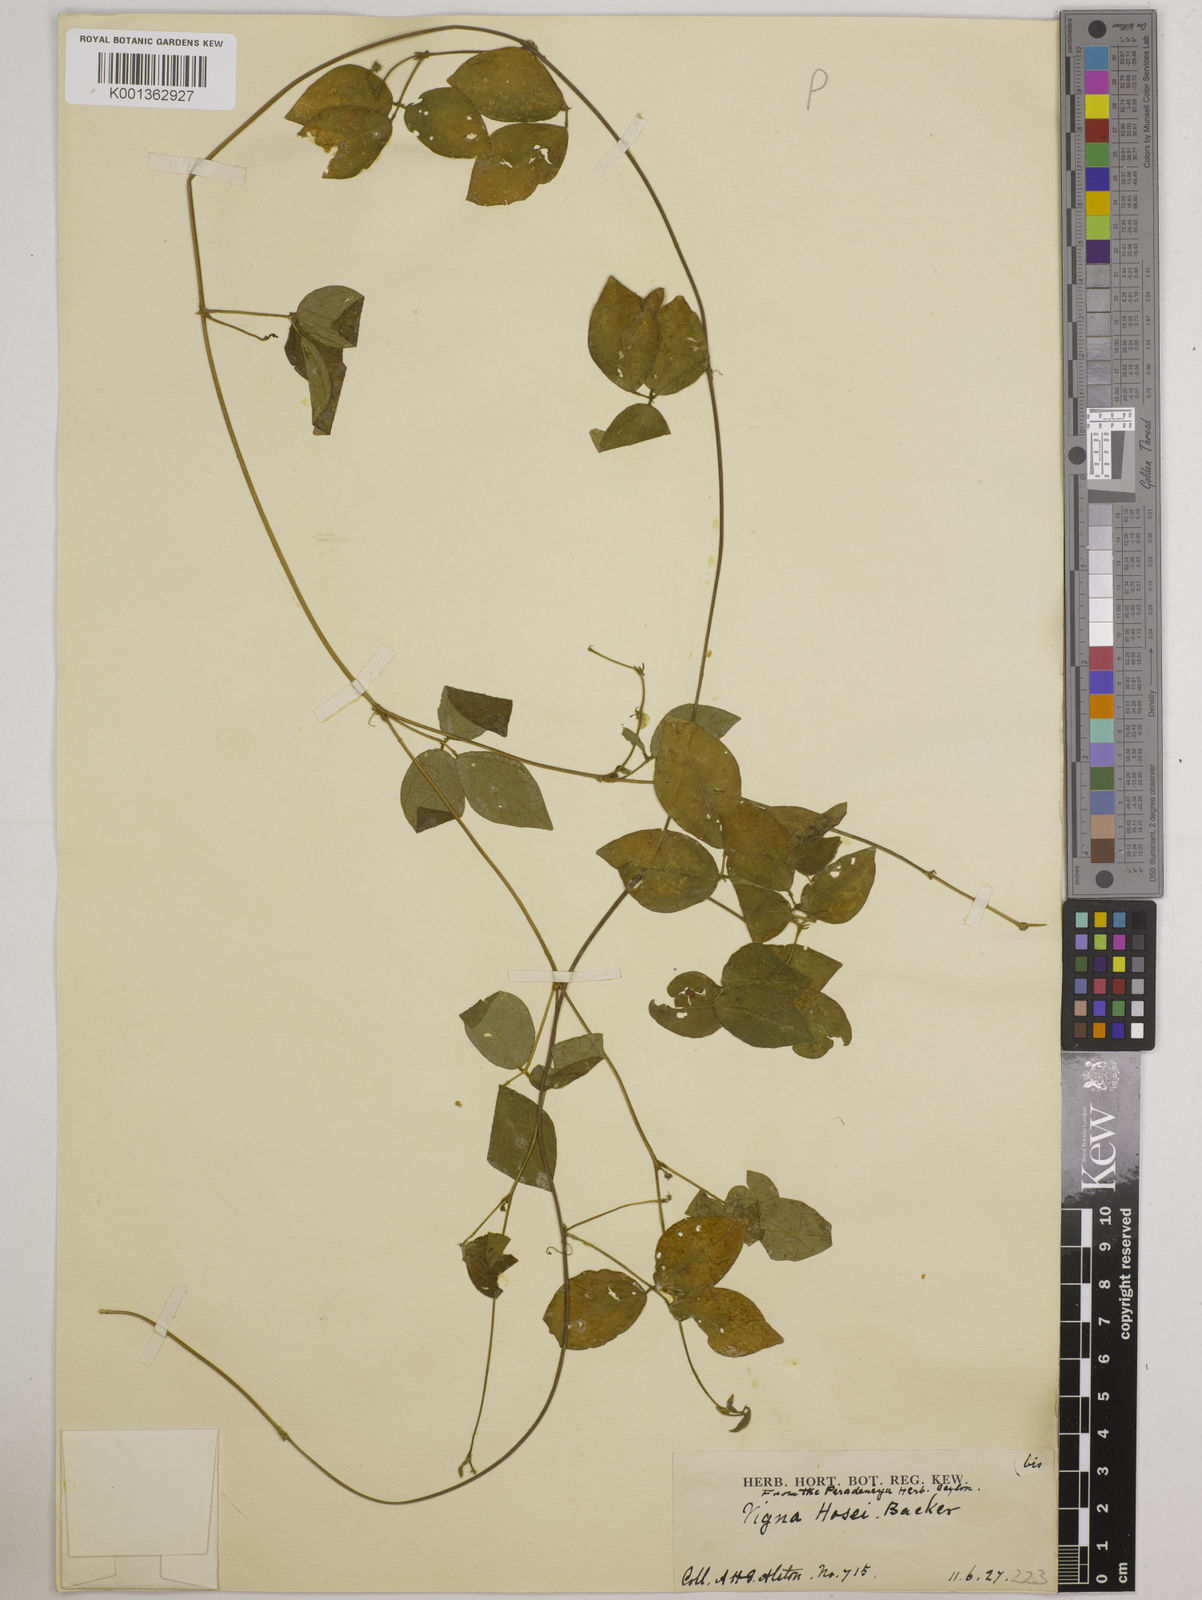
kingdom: Plantae
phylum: Tracheophyta
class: Magnoliopsida
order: Fabales
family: Fabaceae
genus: Vigna
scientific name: Vigna hosei
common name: Sarawak-bean
